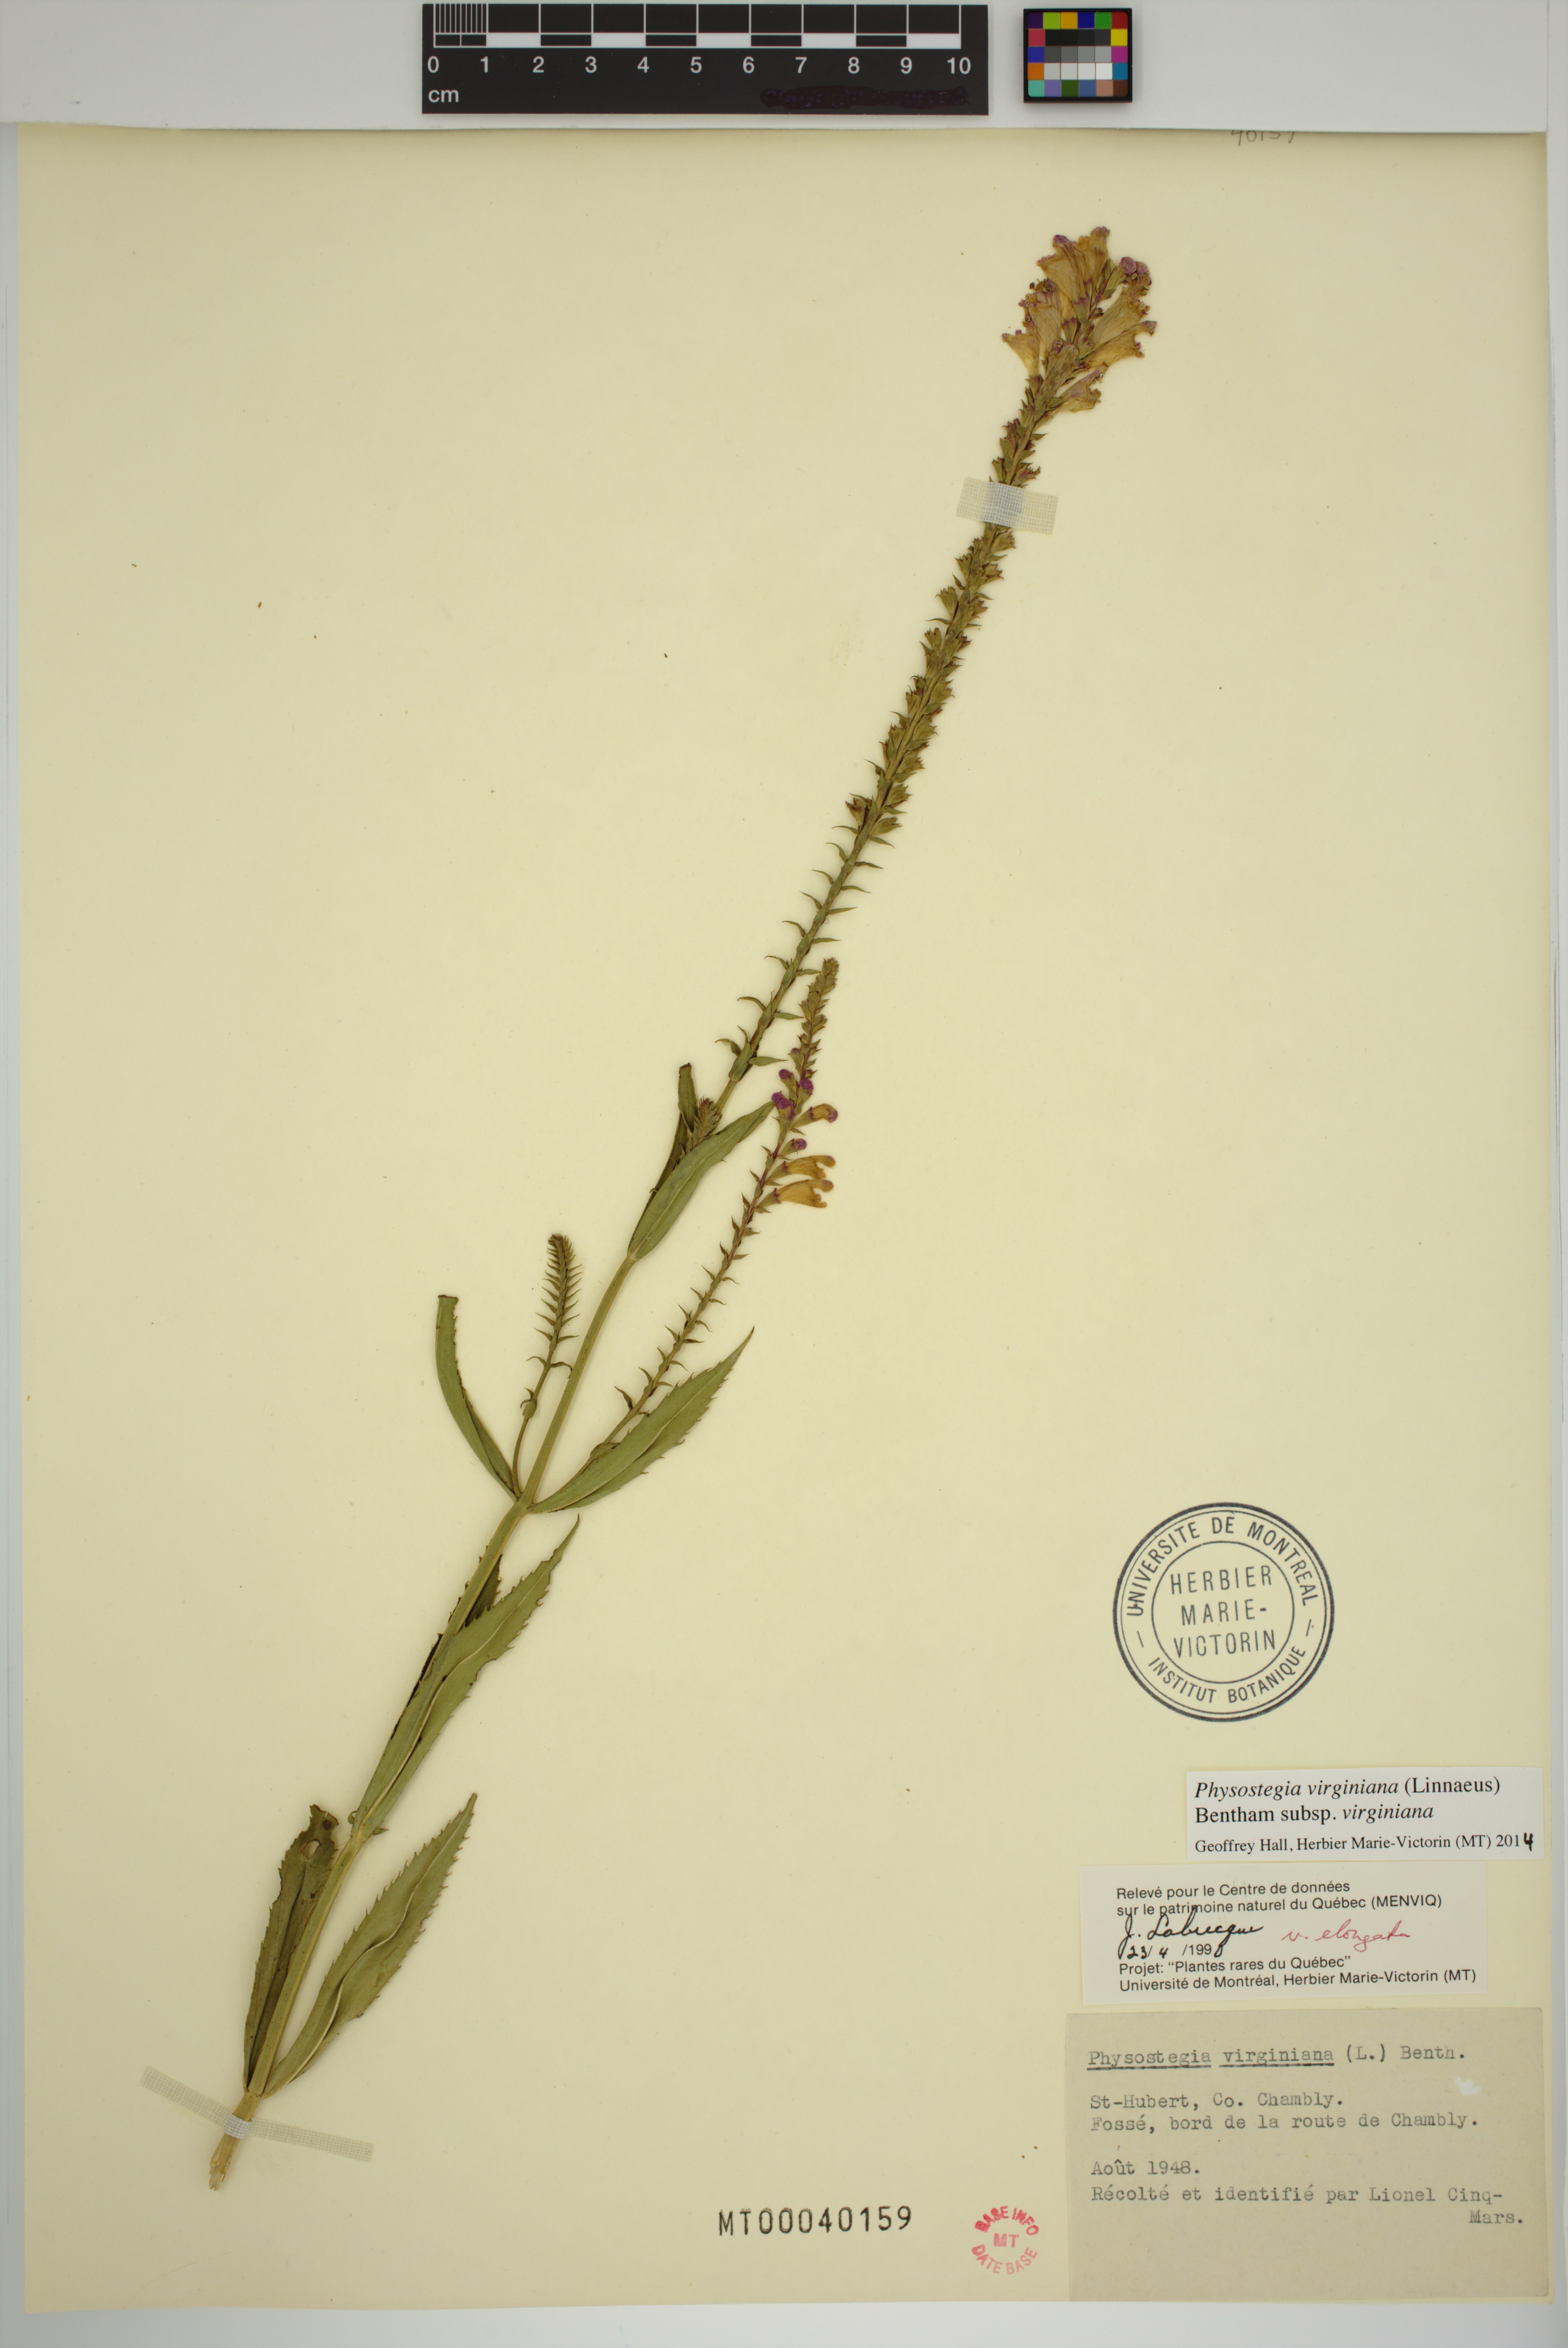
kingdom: Plantae
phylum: Tracheophyta
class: Magnoliopsida
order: Lamiales
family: Lamiaceae
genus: Physostegia
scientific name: Physostegia virginiana
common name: Obedient-plant
